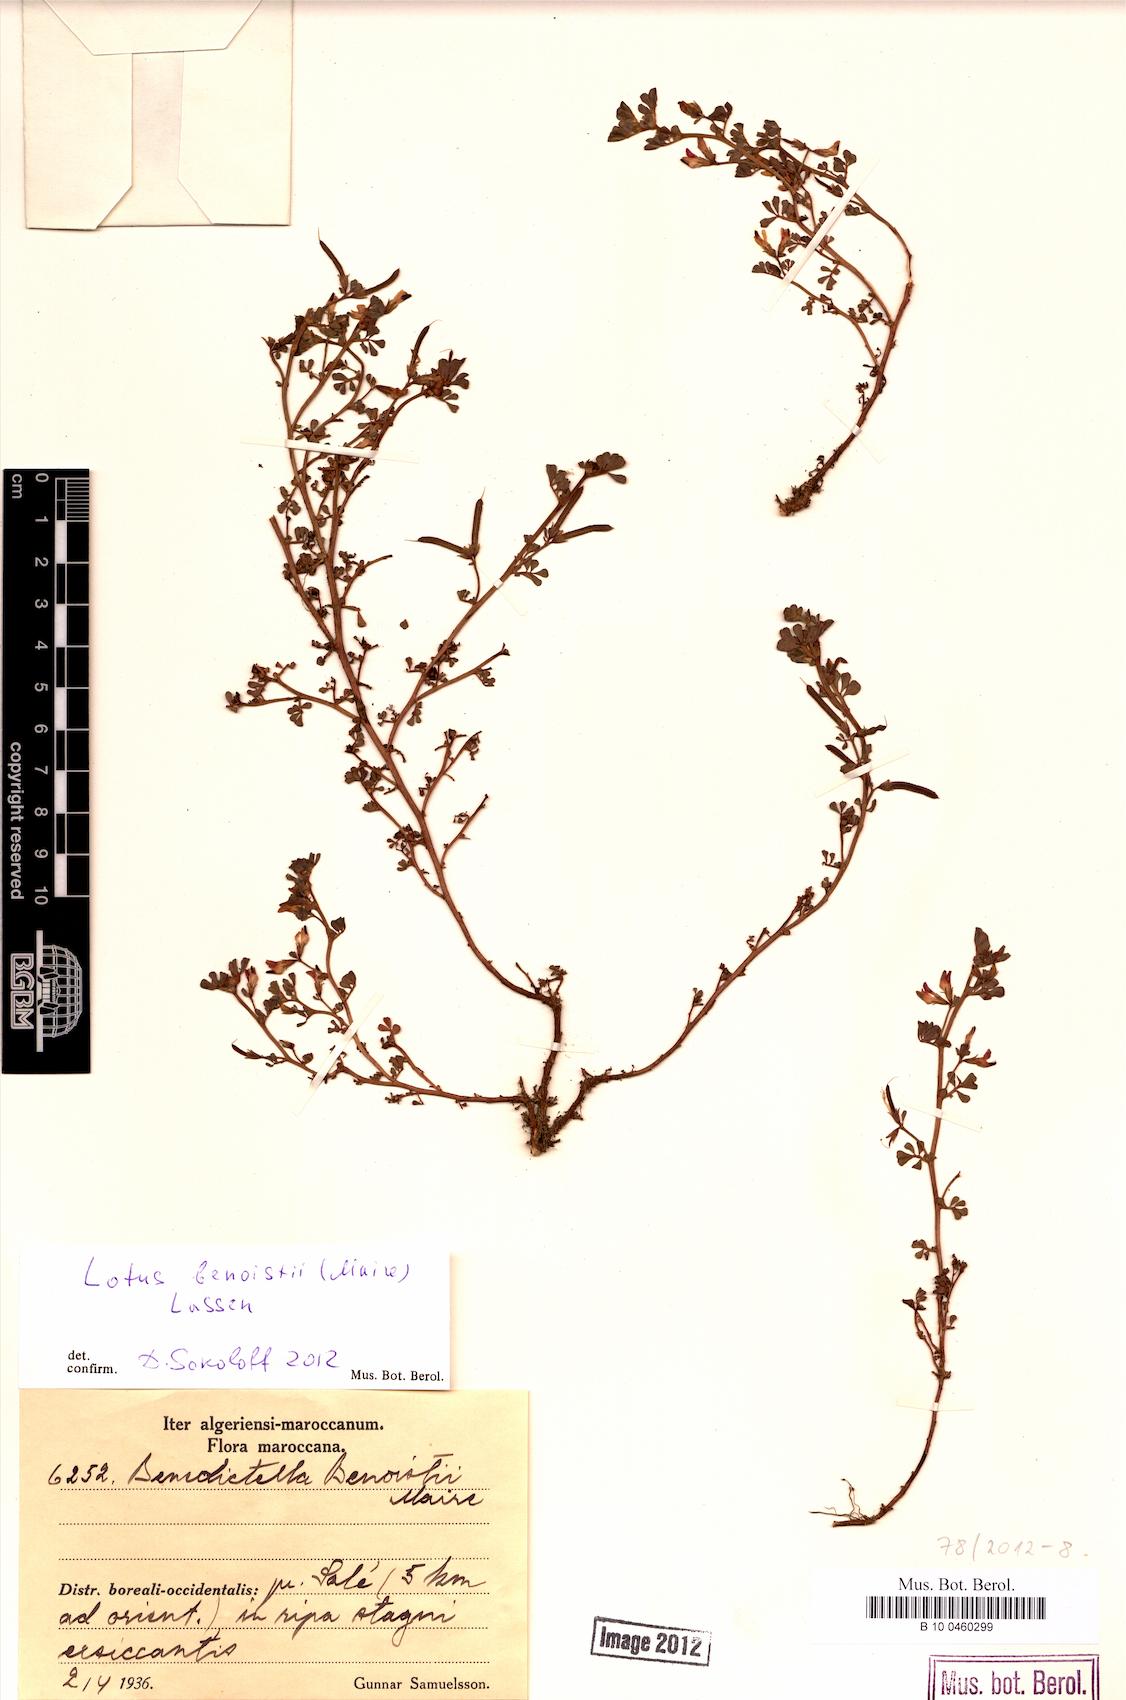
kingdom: Plantae
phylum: Tracheophyta
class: Magnoliopsida
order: Fabales
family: Fabaceae
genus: Lotus
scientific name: Lotus benoistii
